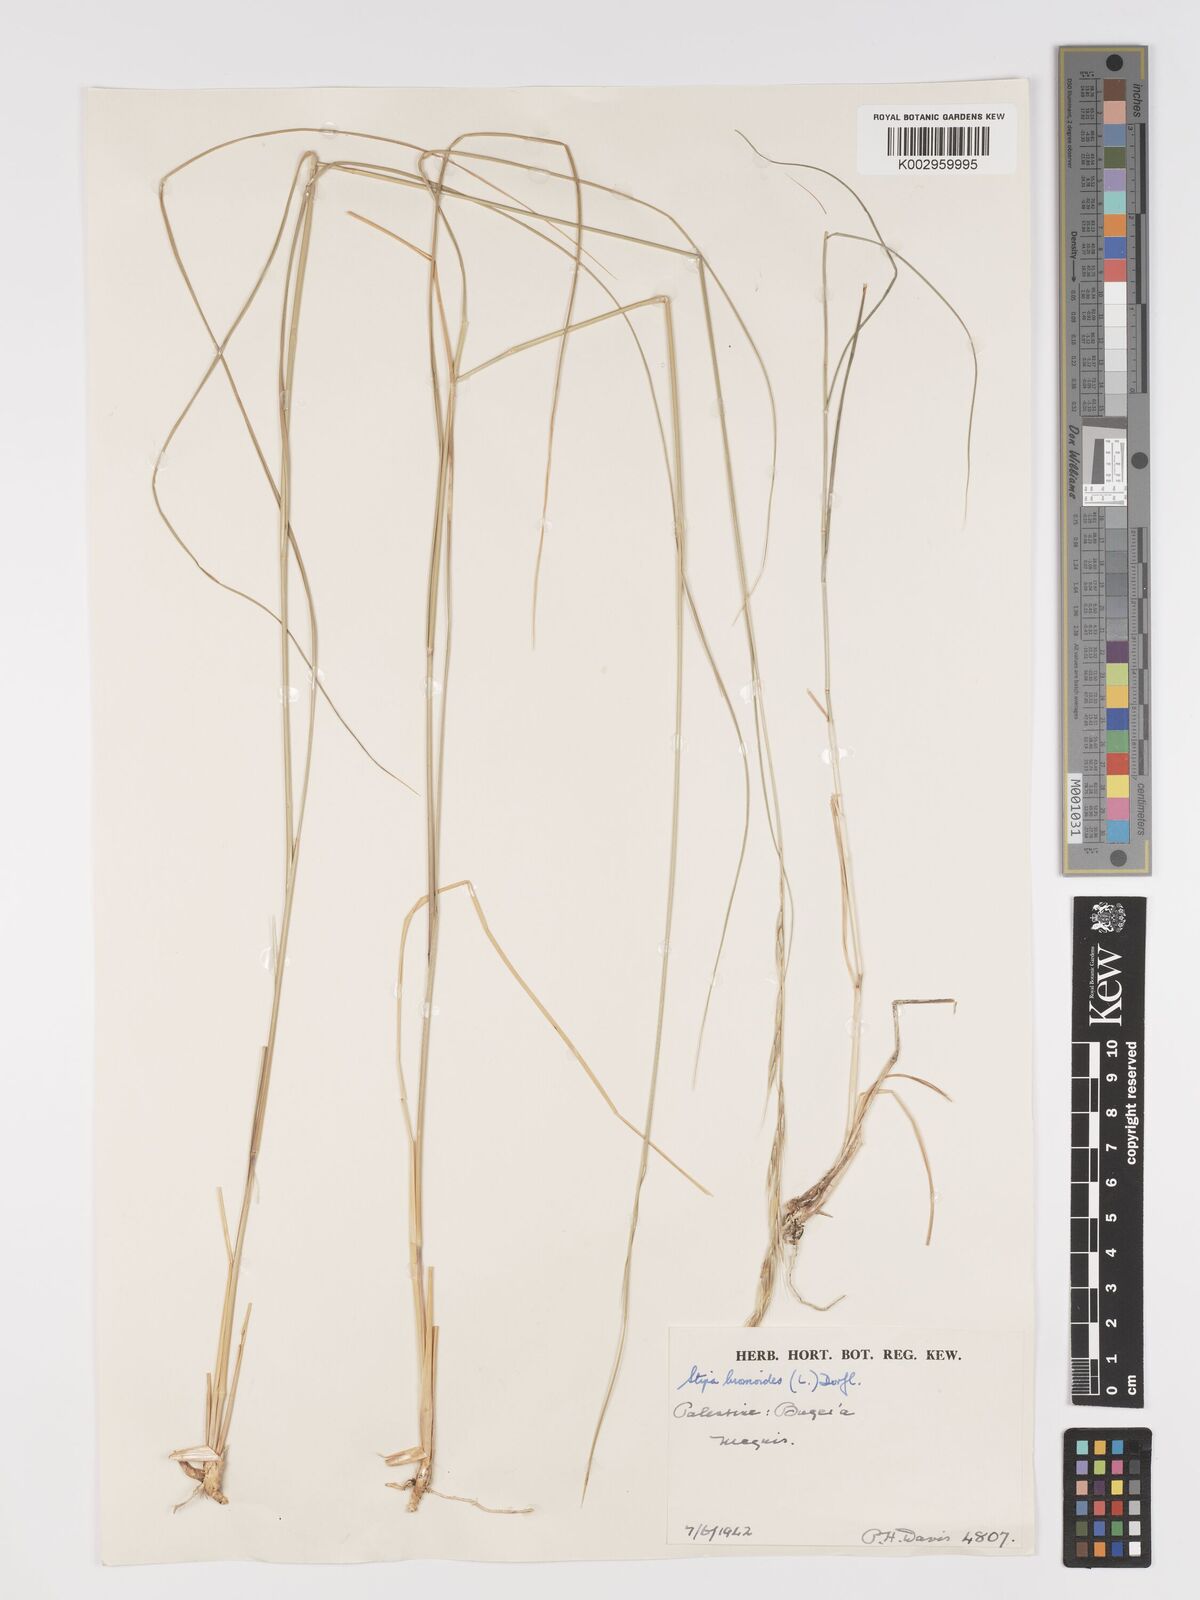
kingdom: Plantae
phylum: Tracheophyta
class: Liliopsida
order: Poales
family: Poaceae
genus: Achnatherum
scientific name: Achnatherum bromoides
